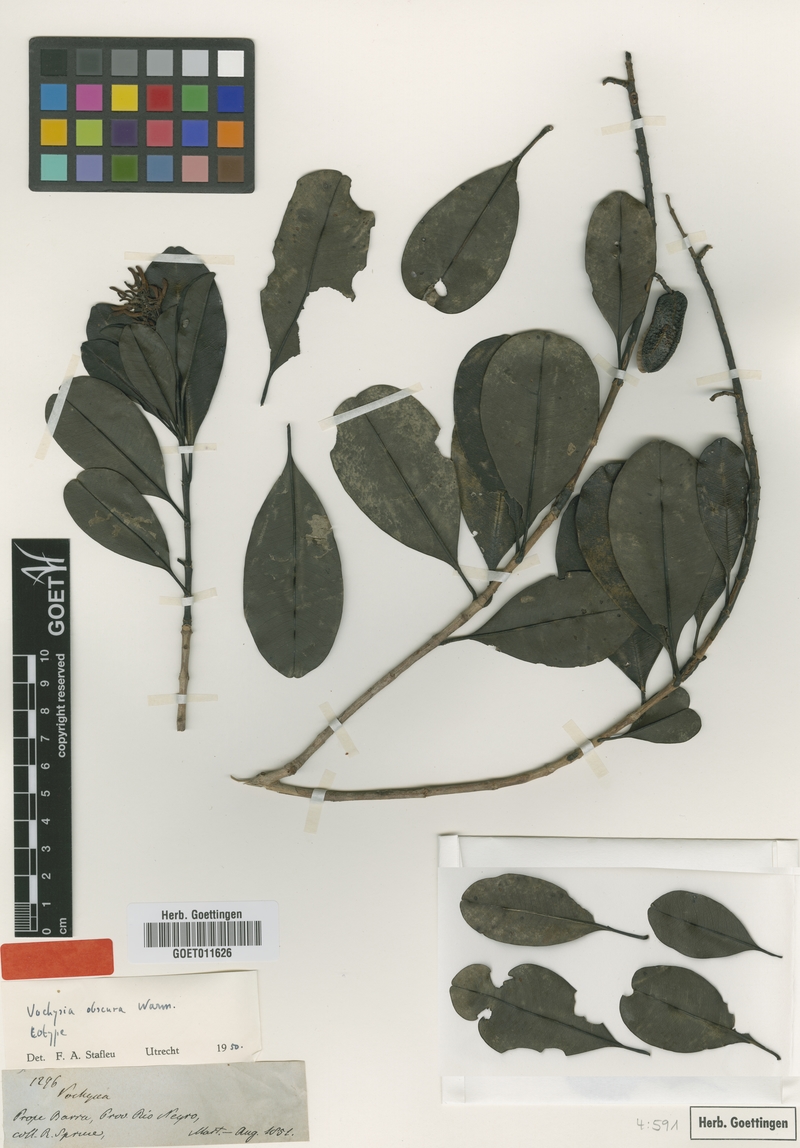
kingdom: Plantae
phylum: Tracheophyta
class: Magnoliopsida
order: Myrtales
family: Vochysiaceae
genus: Vochysia
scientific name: Vochysia obscura
